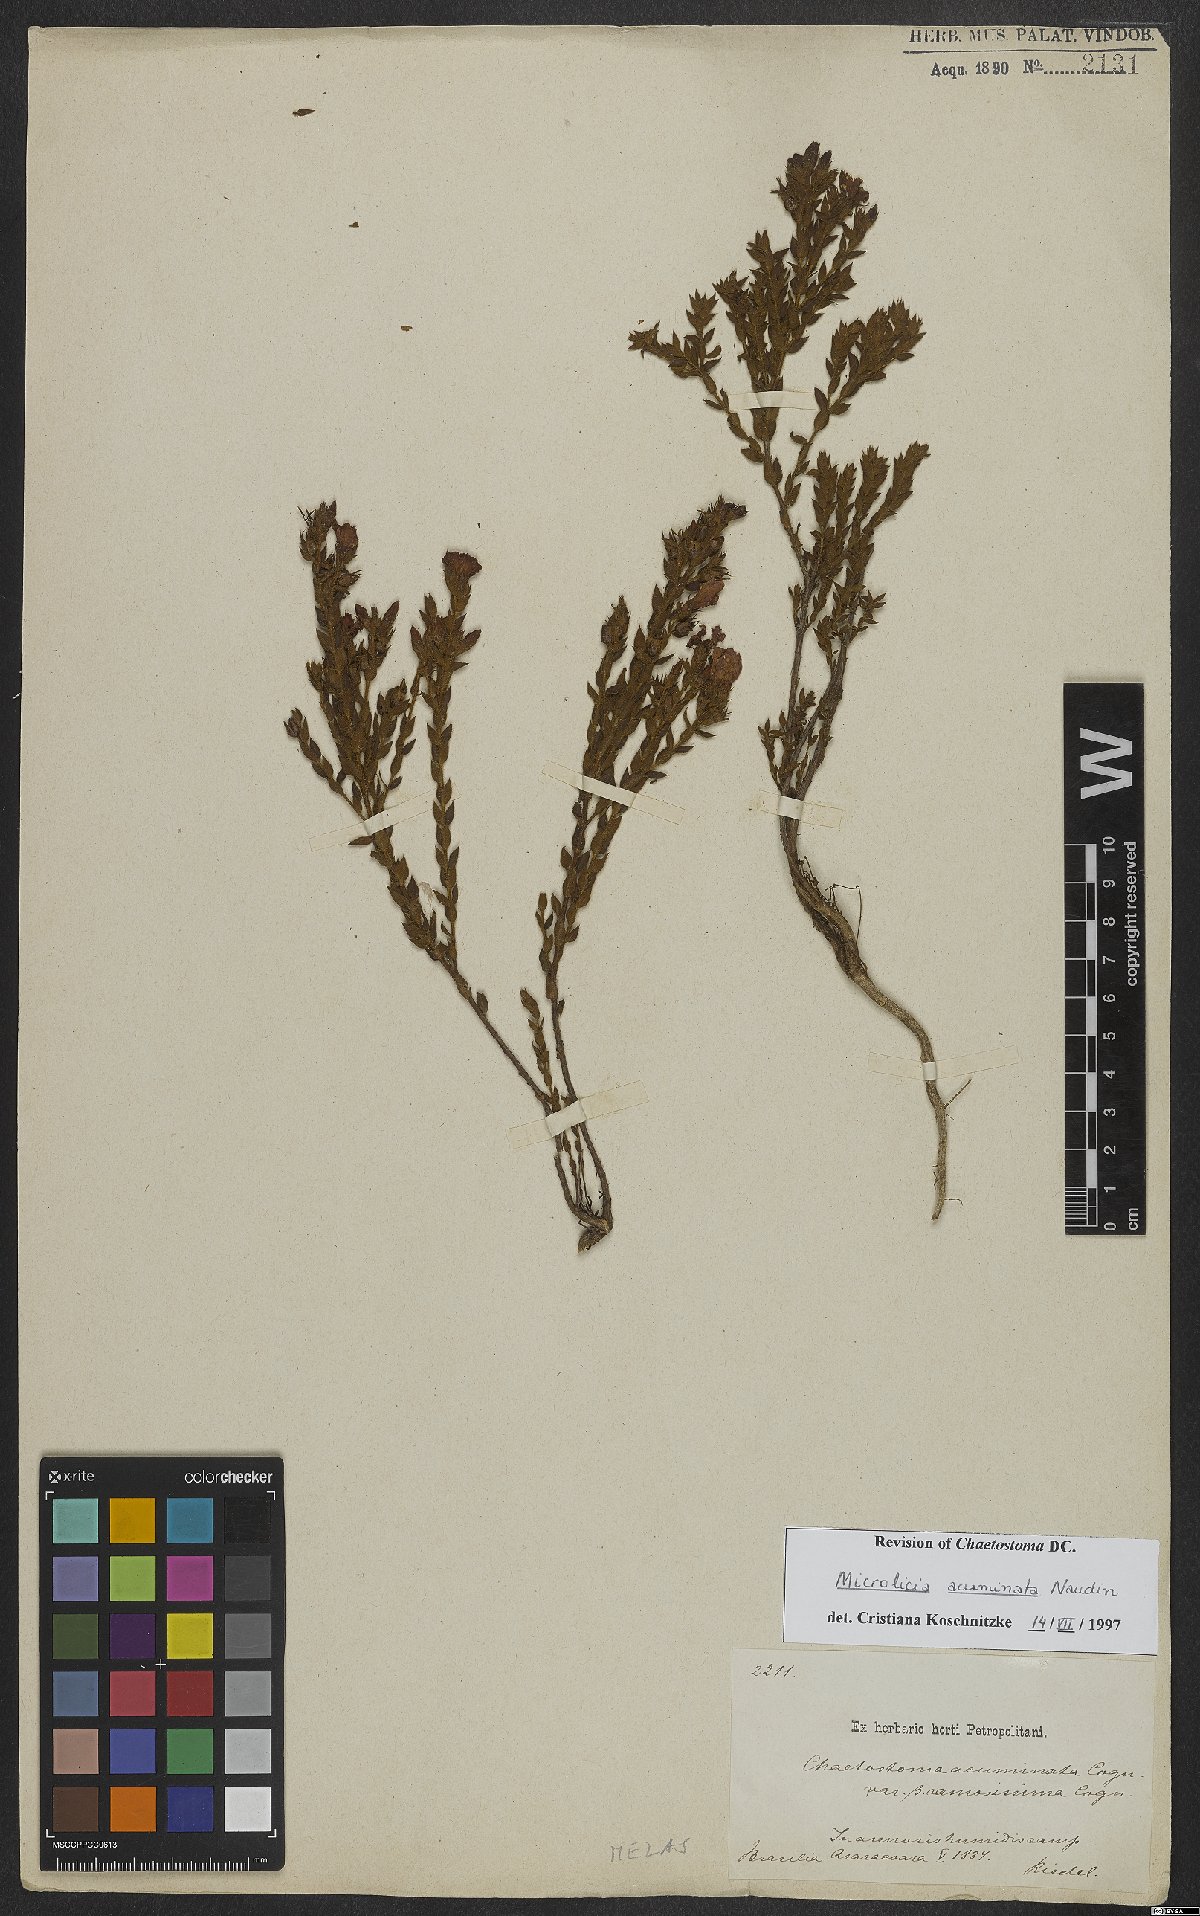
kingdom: Plantae
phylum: Tracheophyta
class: Magnoliopsida
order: Myrtales
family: Melastomataceae
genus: Microlicia
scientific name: Microlicia hirticalyx
